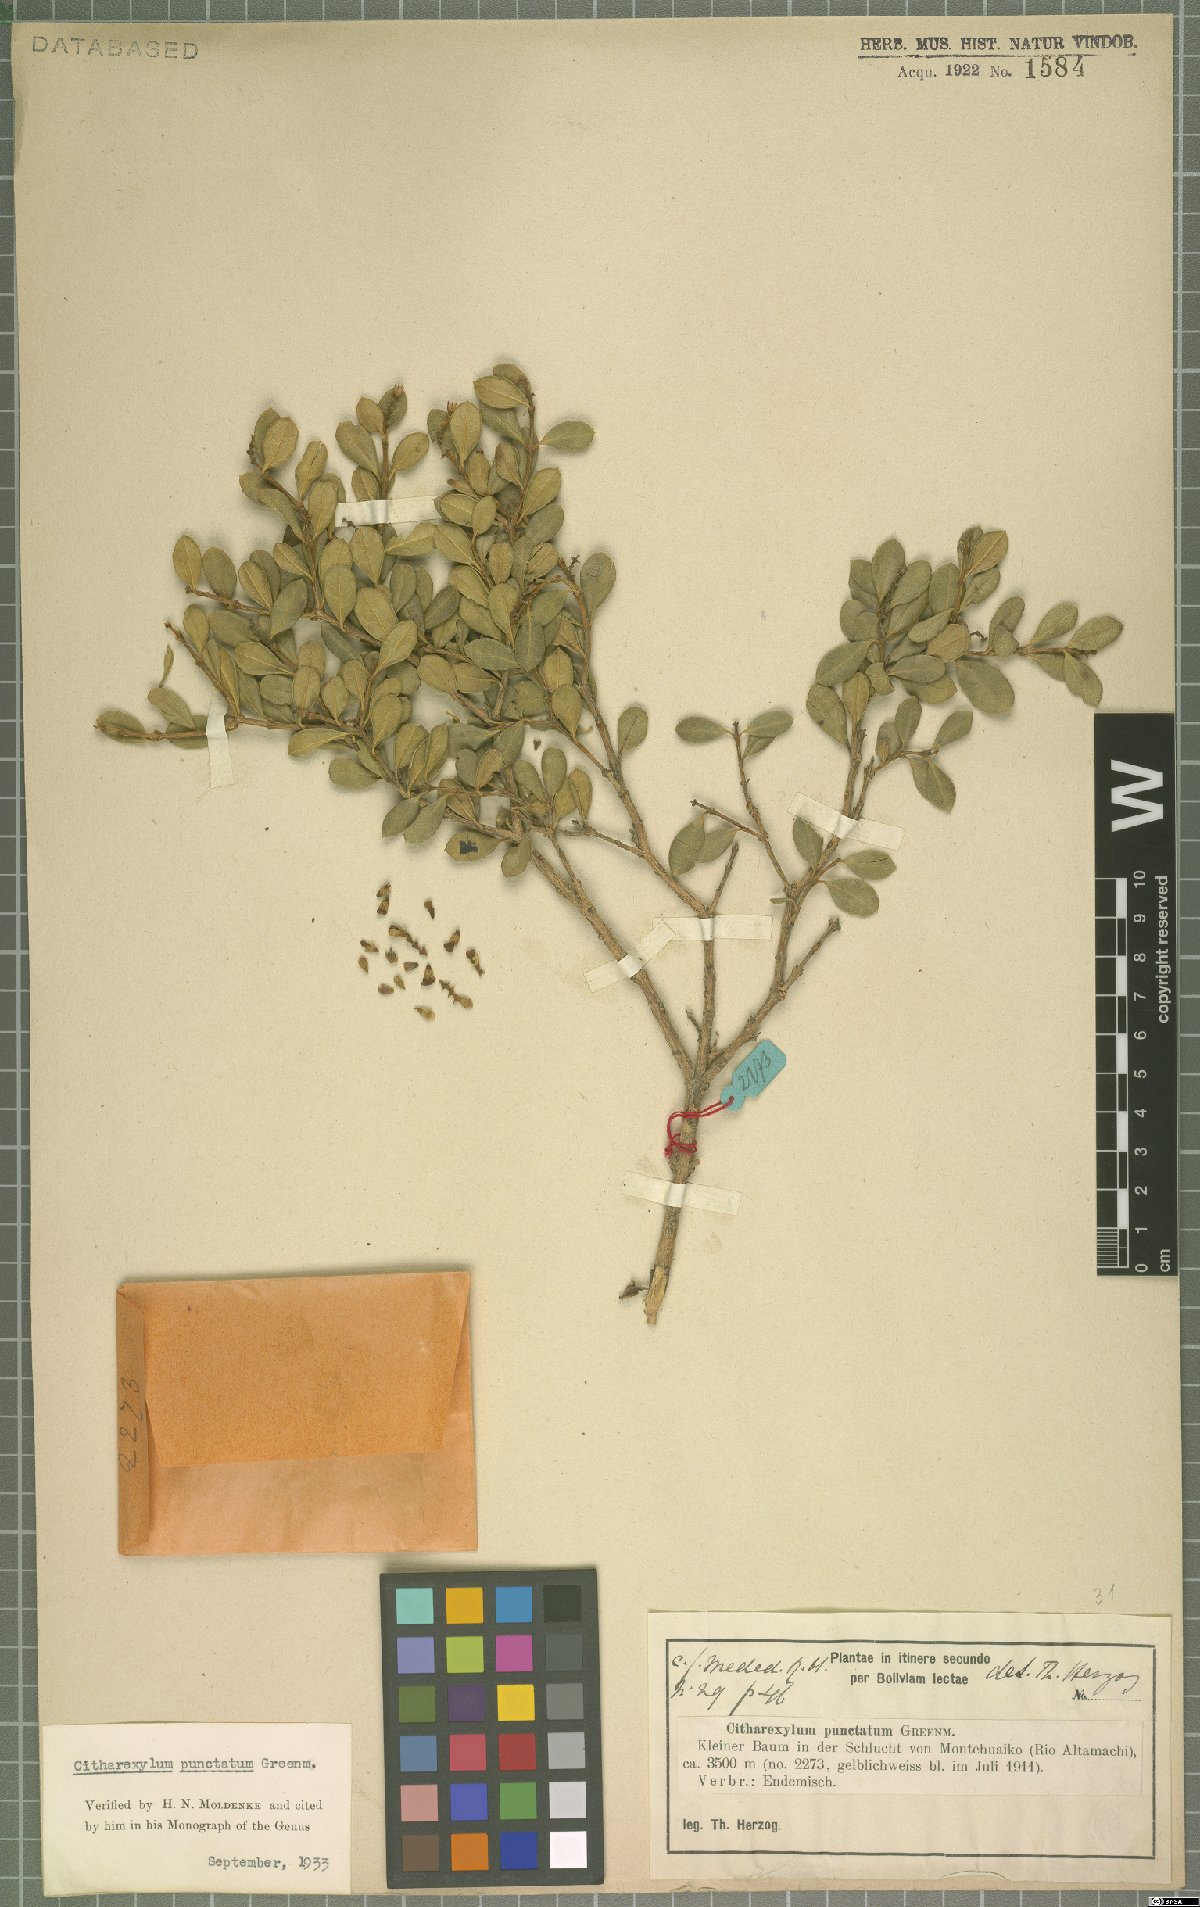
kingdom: Plantae
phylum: Tracheophyta
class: Magnoliopsida
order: Lamiales
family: Verbenaceae
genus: Citharexylum
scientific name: Citharexylum dentatum
